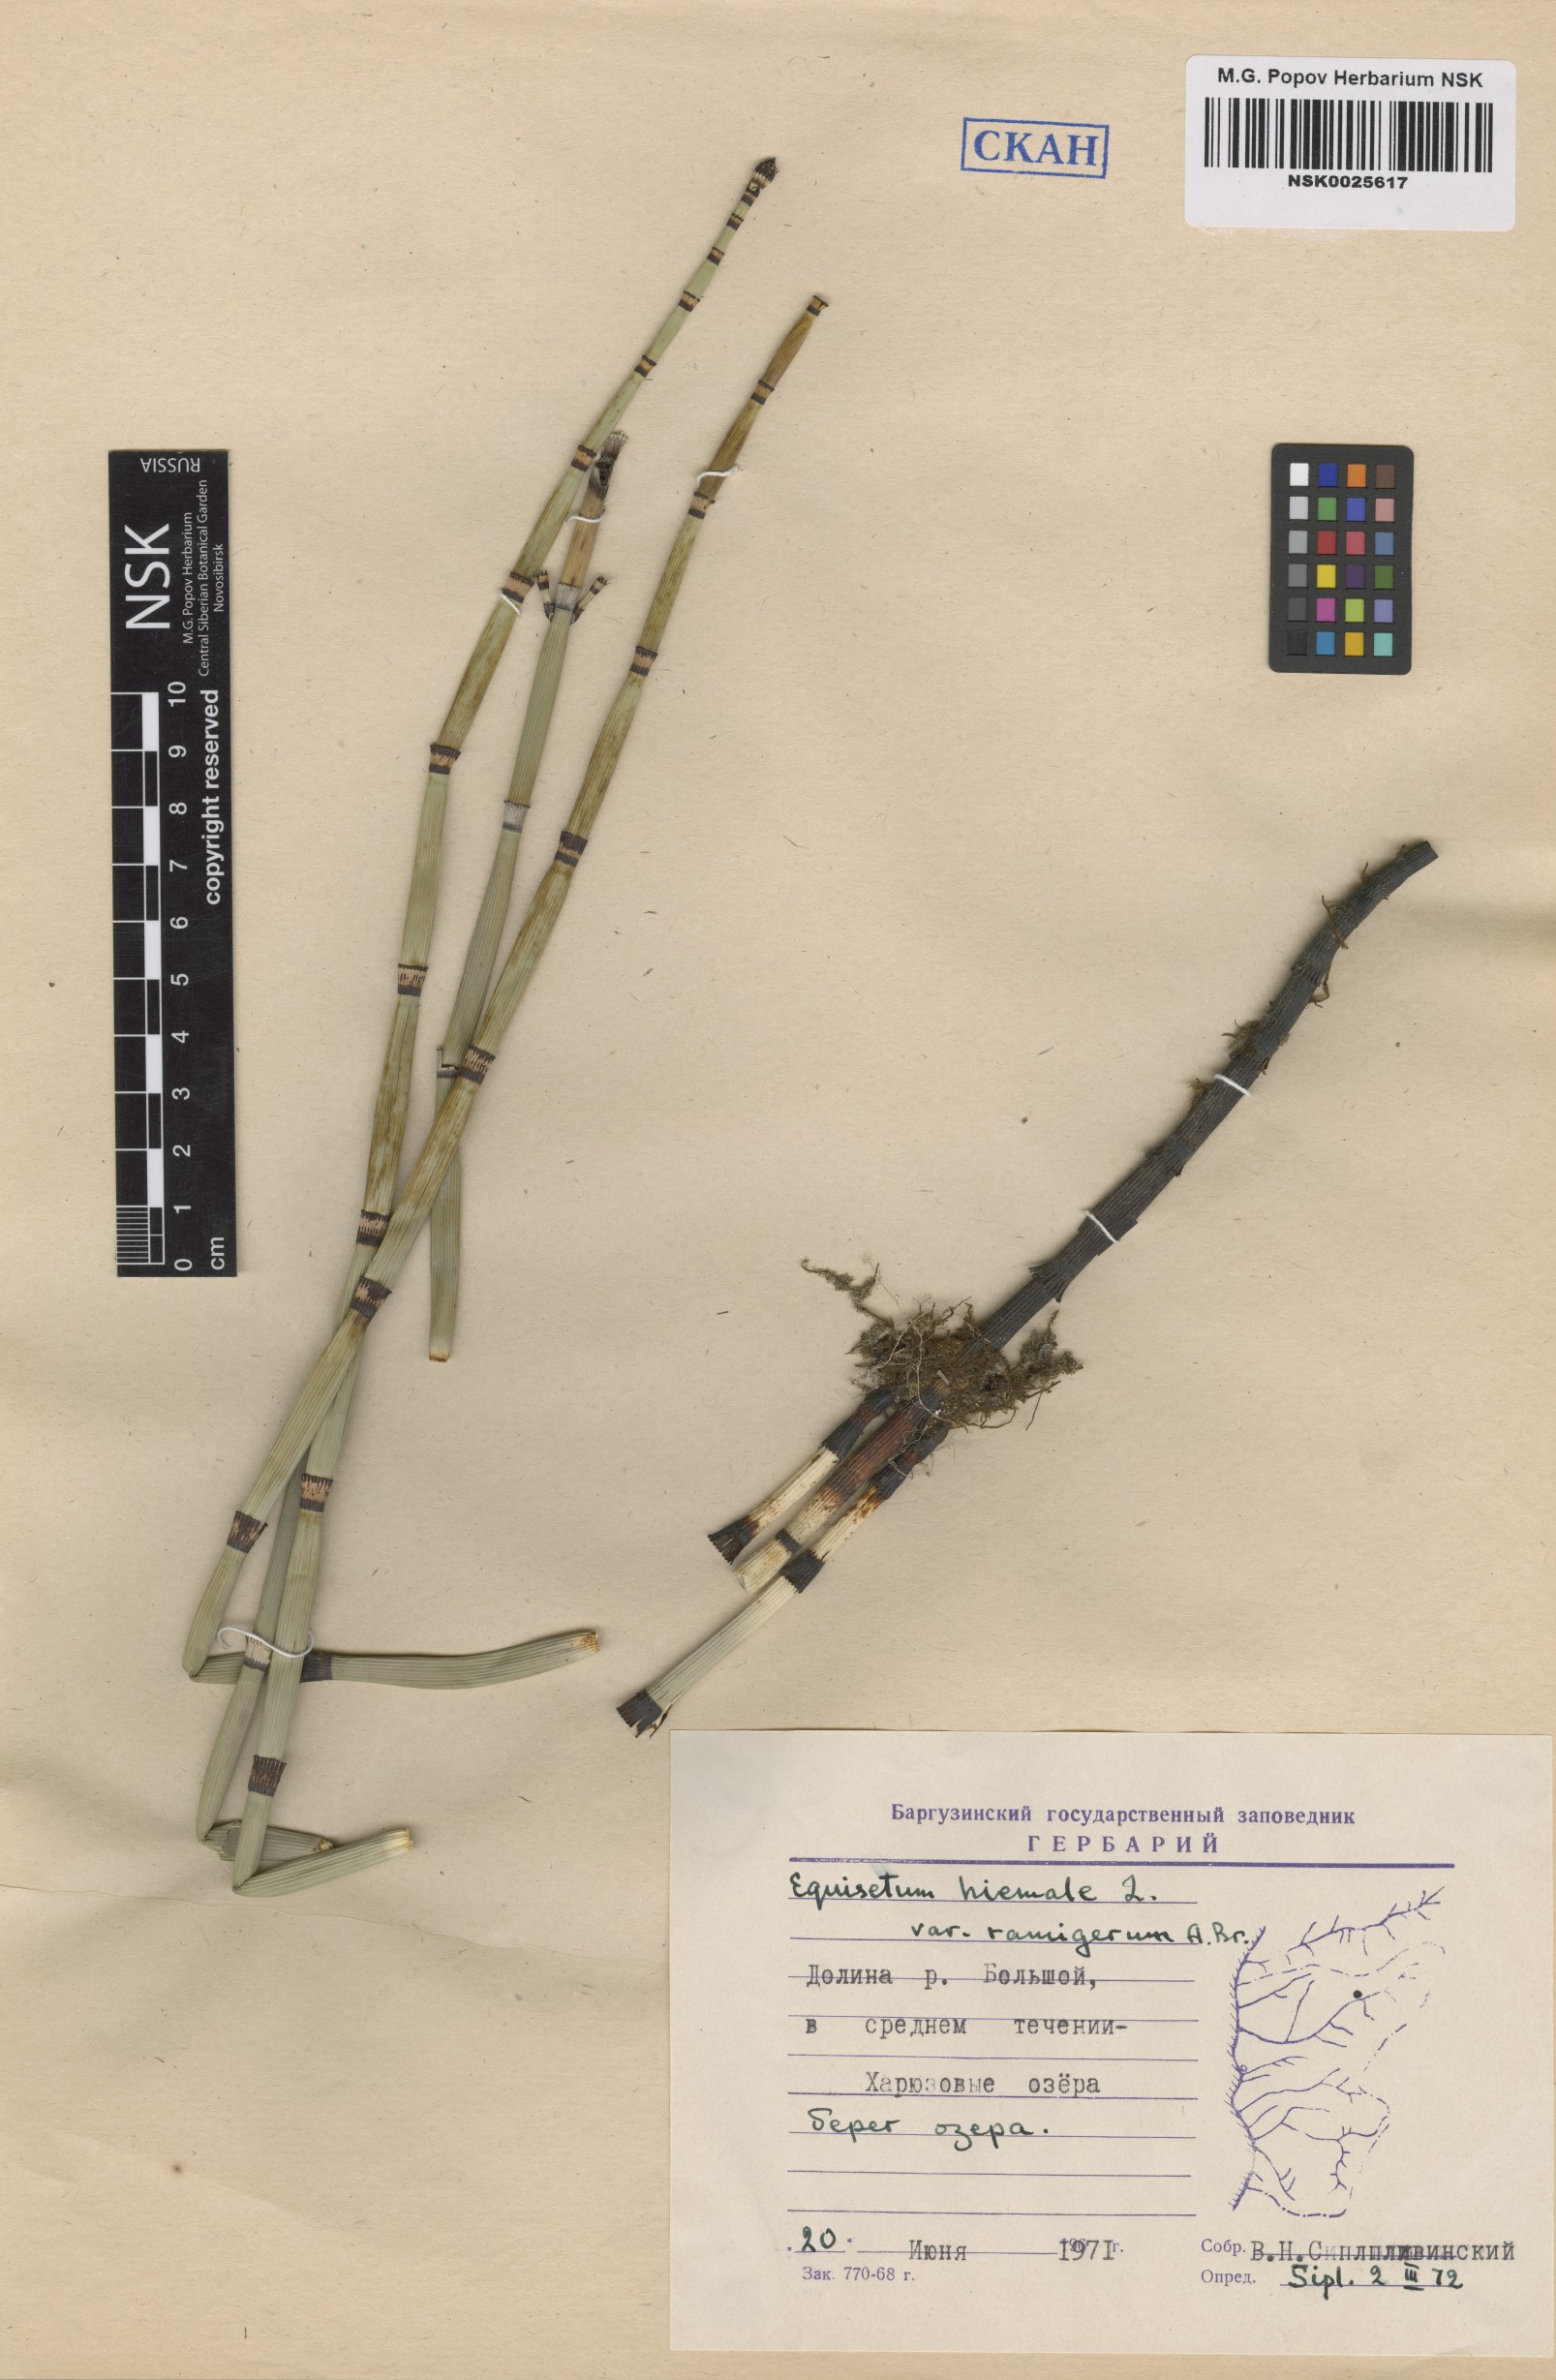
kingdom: Plantae
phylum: Tracheophyta
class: Polypodiopsida
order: Equisetales
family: Equisetaceae
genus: Equisetum
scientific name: Equisetum praealtum
